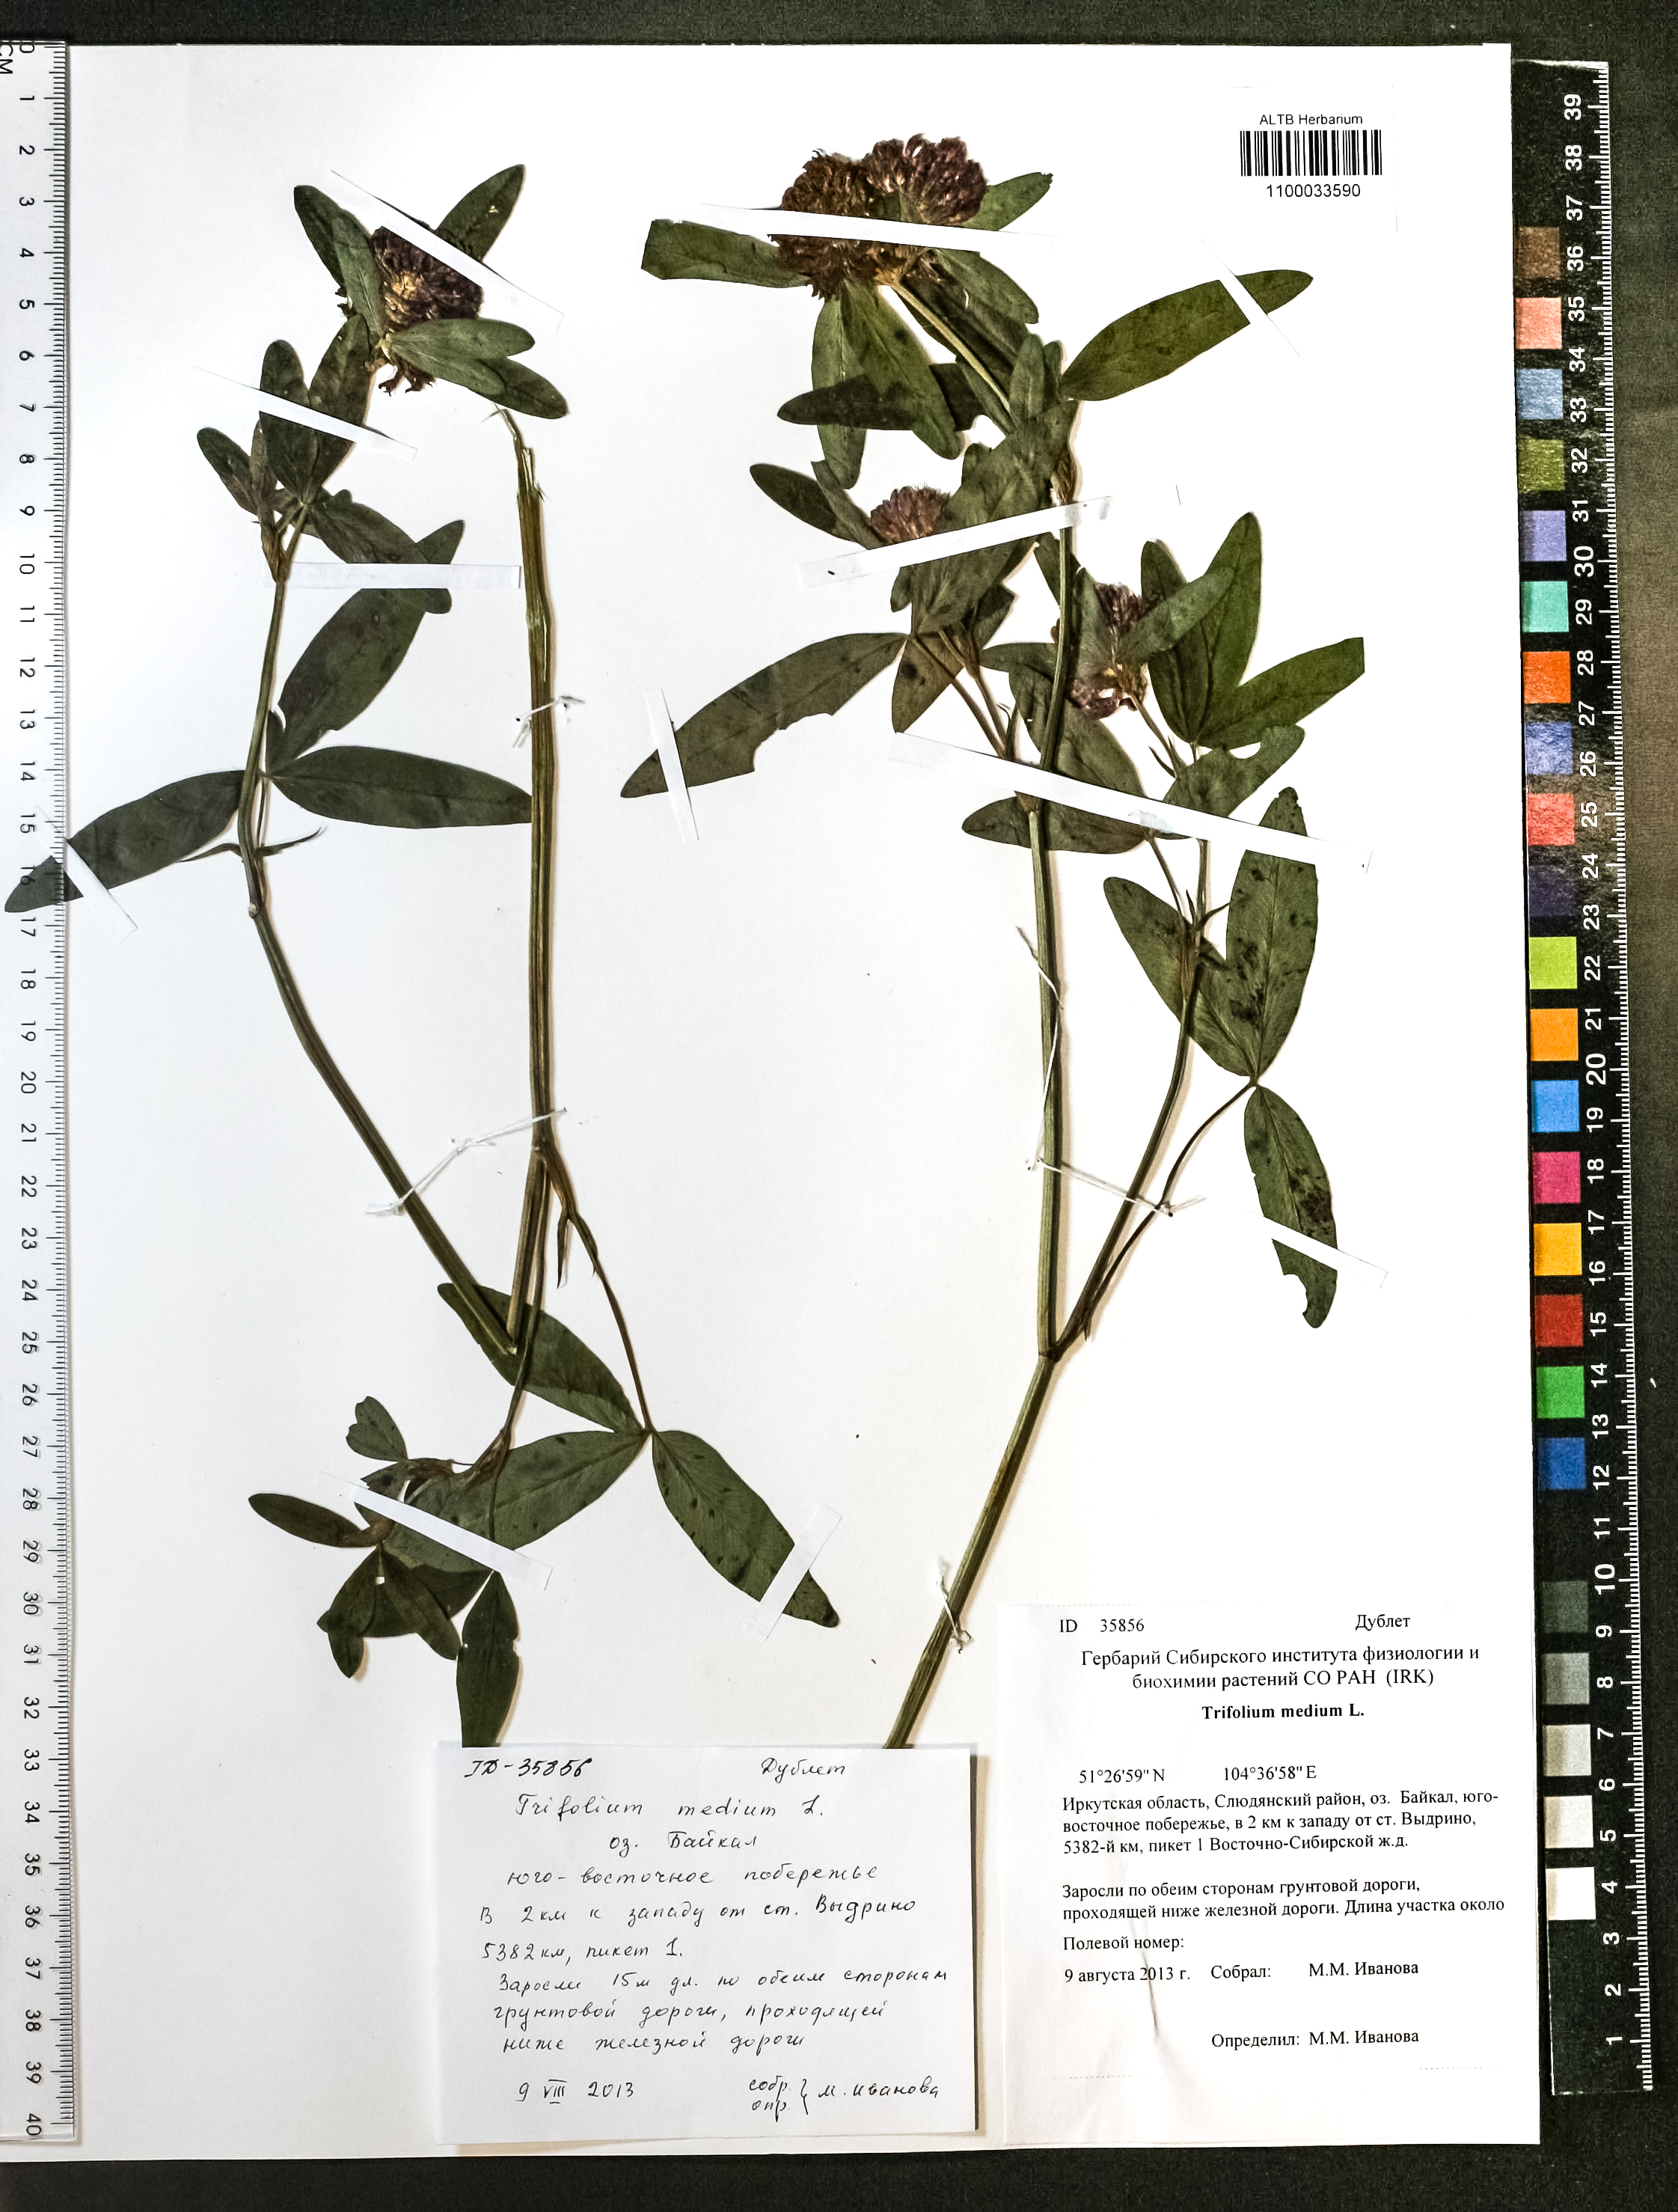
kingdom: Plantae
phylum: Tracheophyta
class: Magnoliopsida
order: Fabales
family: Fabaceae
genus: Trifolium
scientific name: Trifolium medium
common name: Zigzag clover
